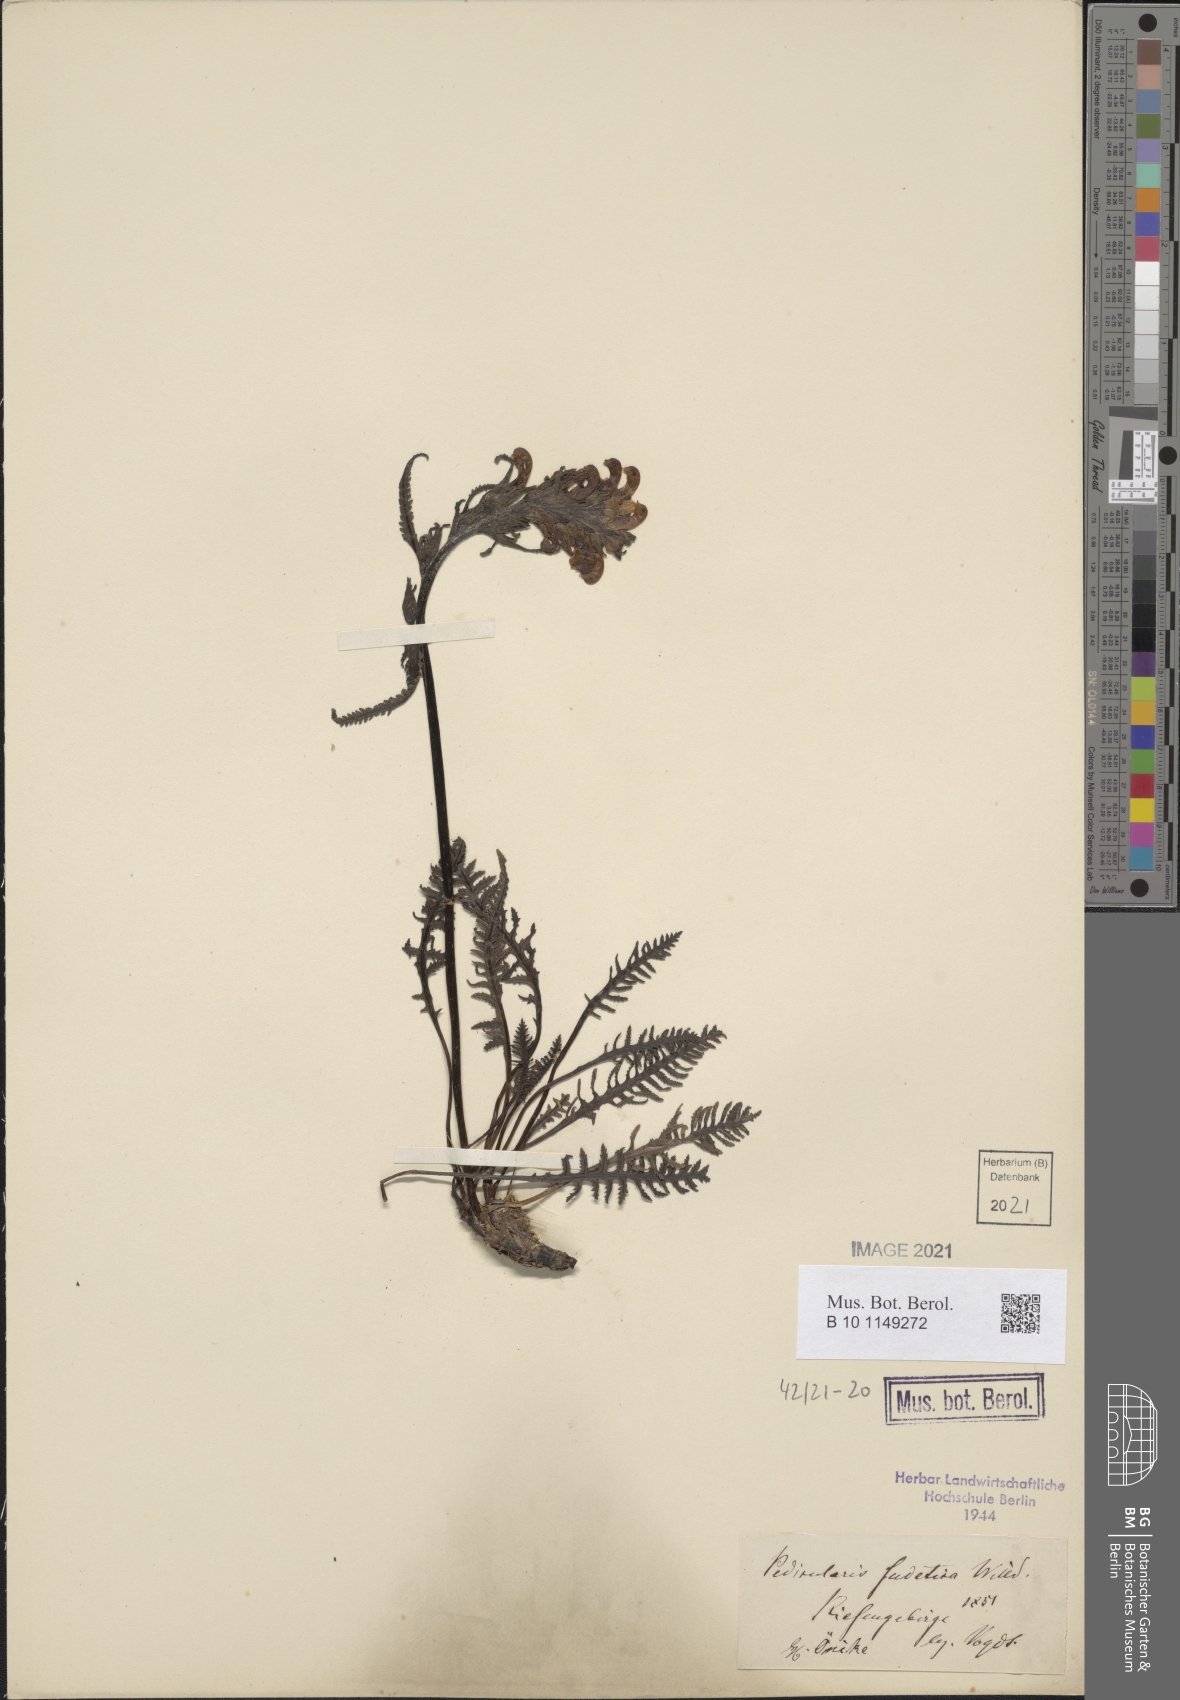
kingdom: Plantae
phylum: Tracheophyta
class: Magnoliopsida
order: Lamiales
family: Orobanchaceae
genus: Pedicularis
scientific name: Pedicularis sudetica
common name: Sudeten lousewort
